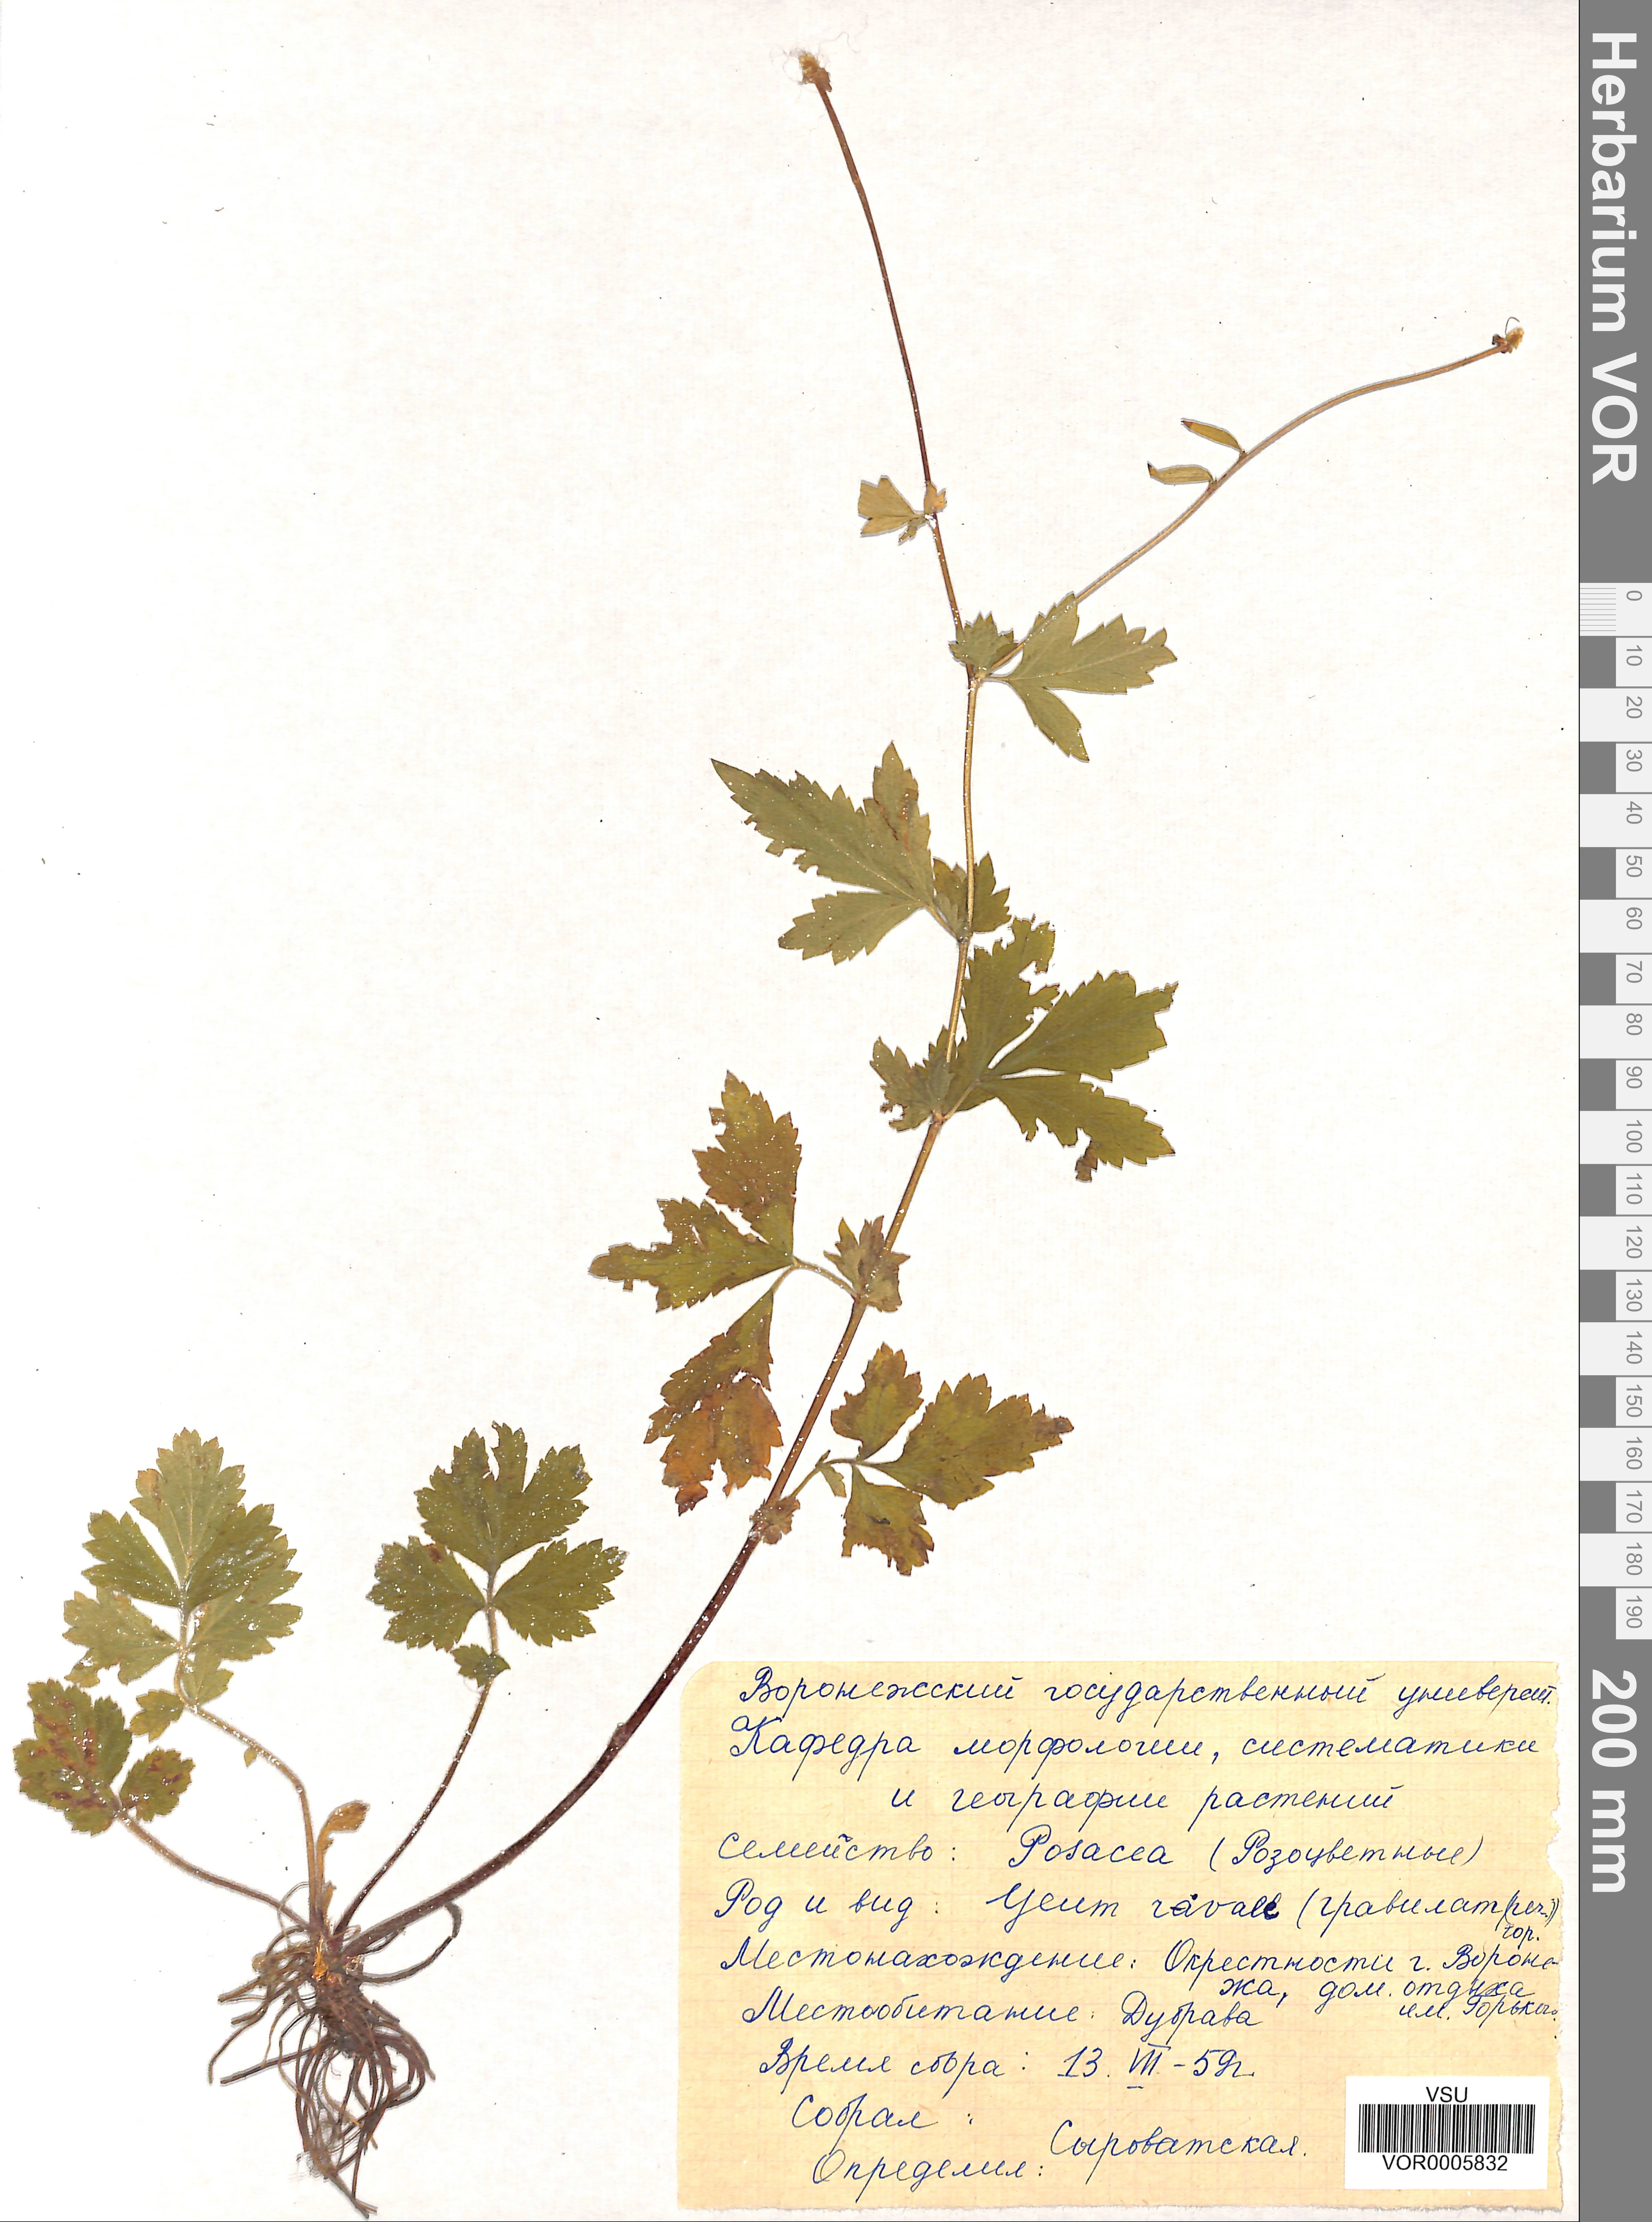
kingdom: Plantae
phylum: Tracheophyta
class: Magnoliopsida
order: Rosales
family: Rosaceae
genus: Geum
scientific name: Geum rivale
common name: Water avens
